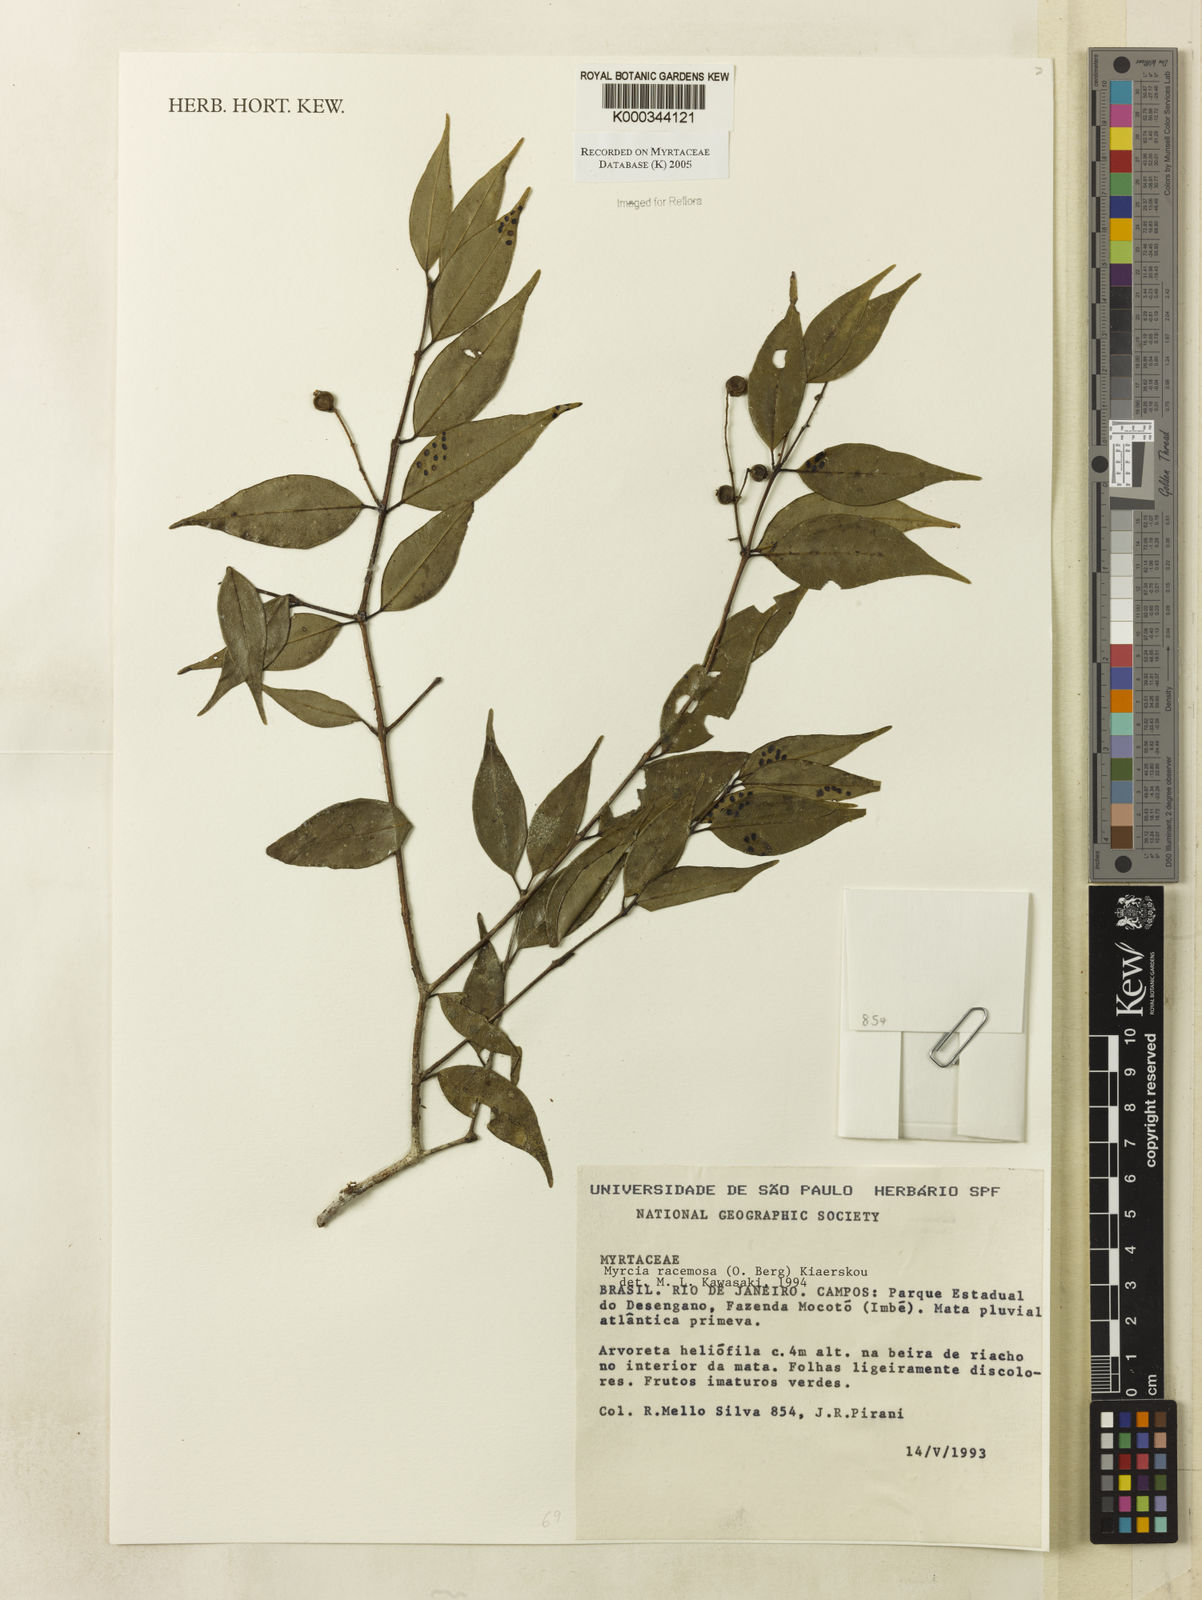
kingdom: Plantae
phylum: Tracheophyta
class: Magnoliopsida
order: Myrtales
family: Myrtaceae
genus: Myrcia
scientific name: Myrcia racemosa
